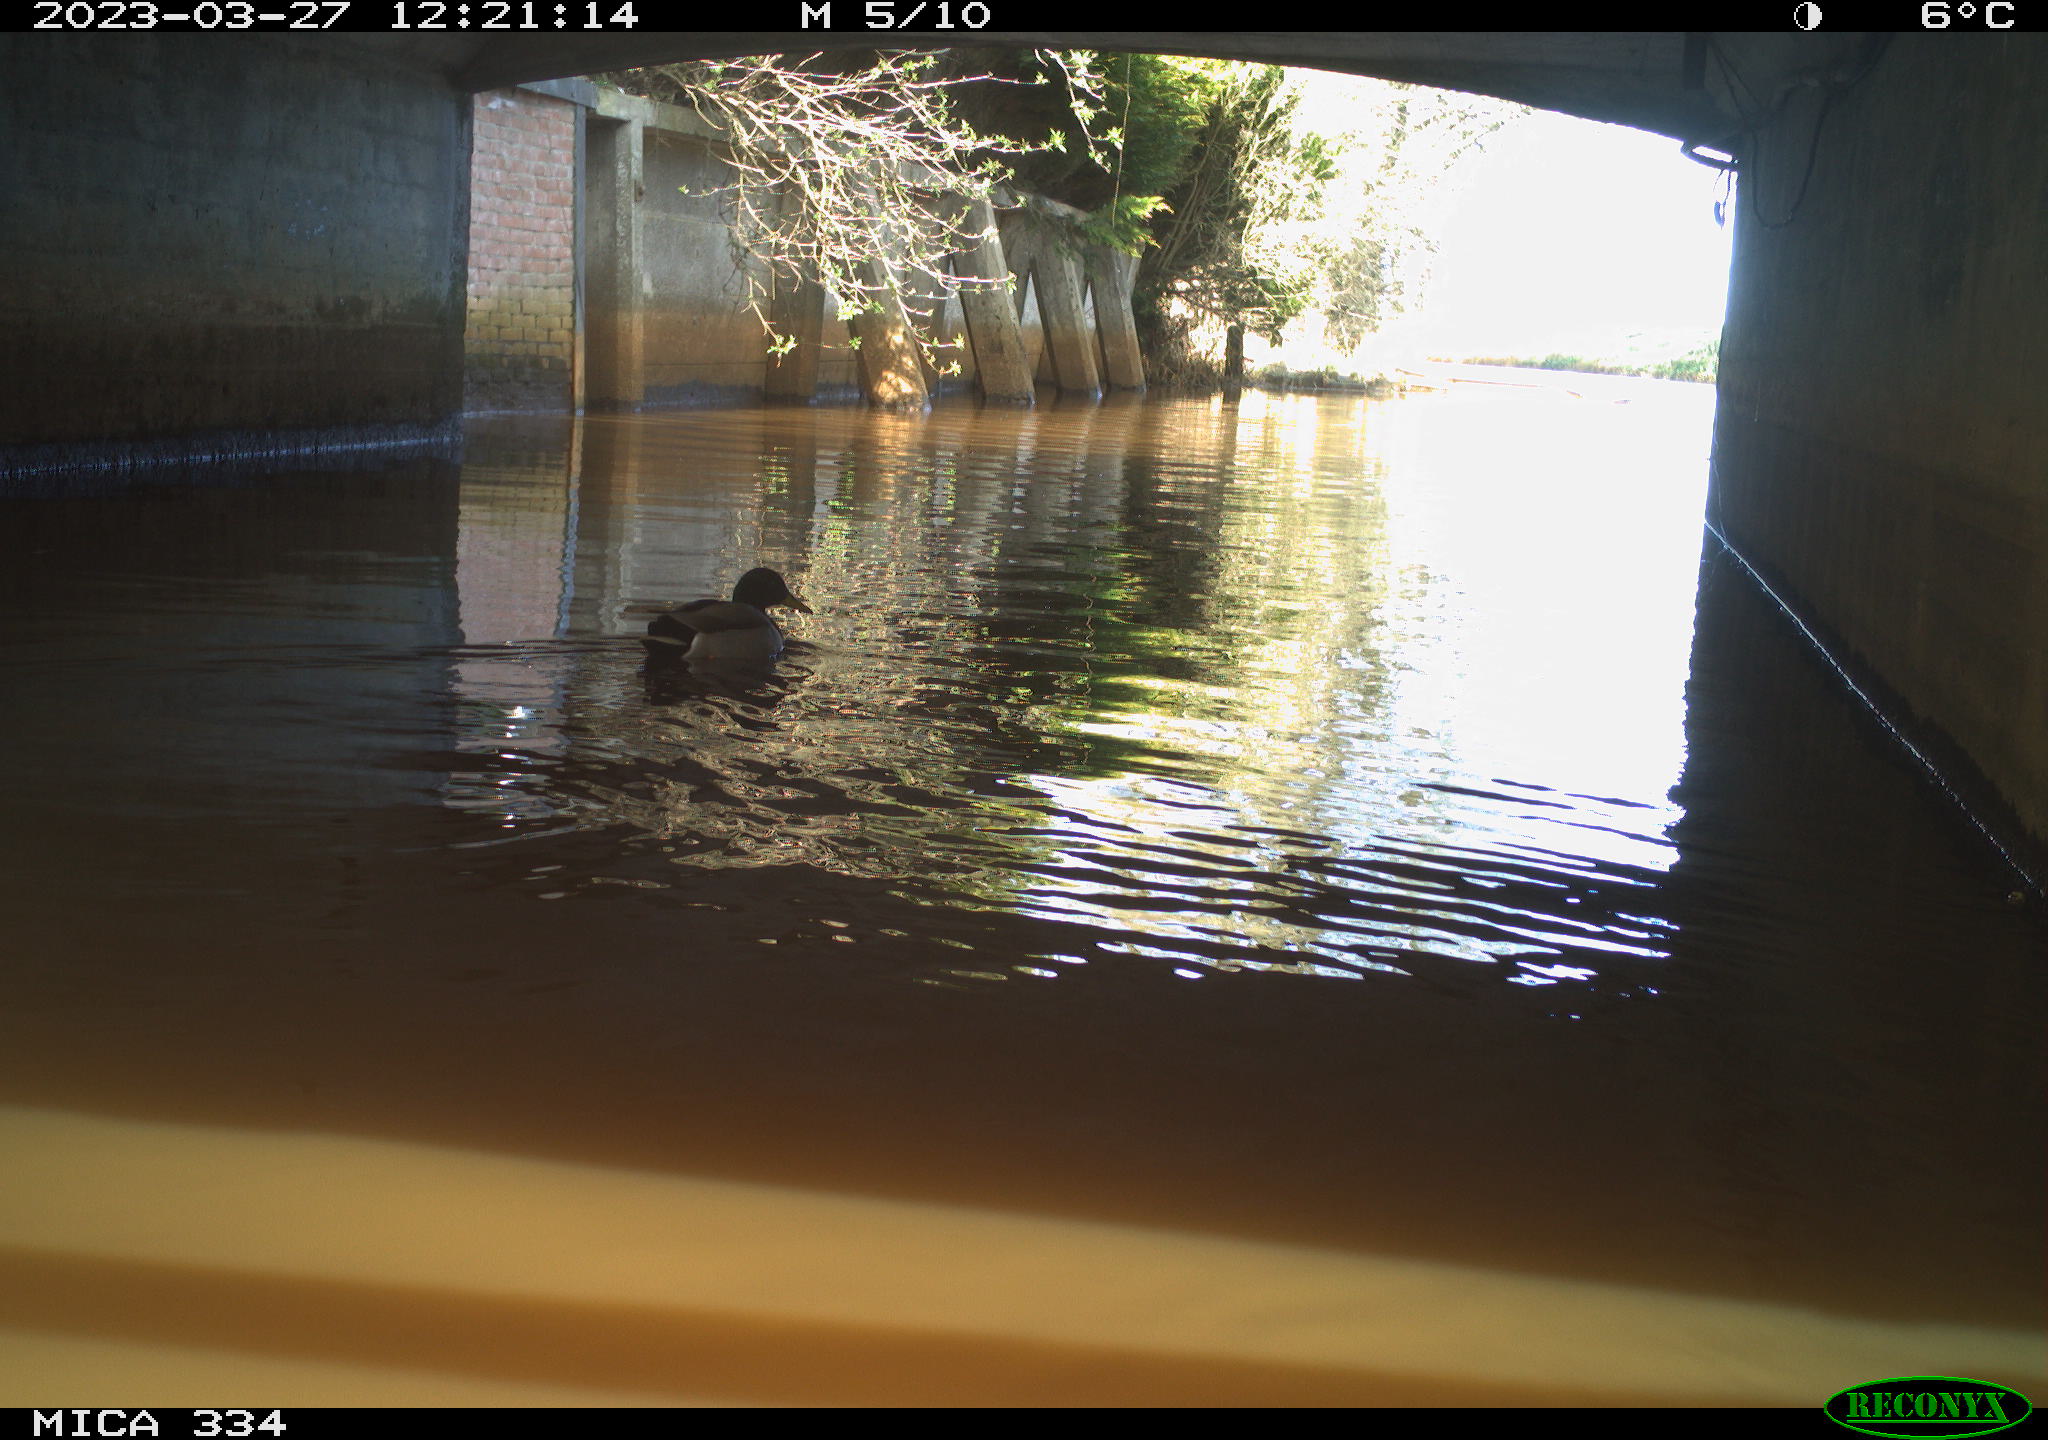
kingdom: Animalia
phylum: Chordata
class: Aves
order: Anseriformes
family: Anatidae
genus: Anas
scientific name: Anas
